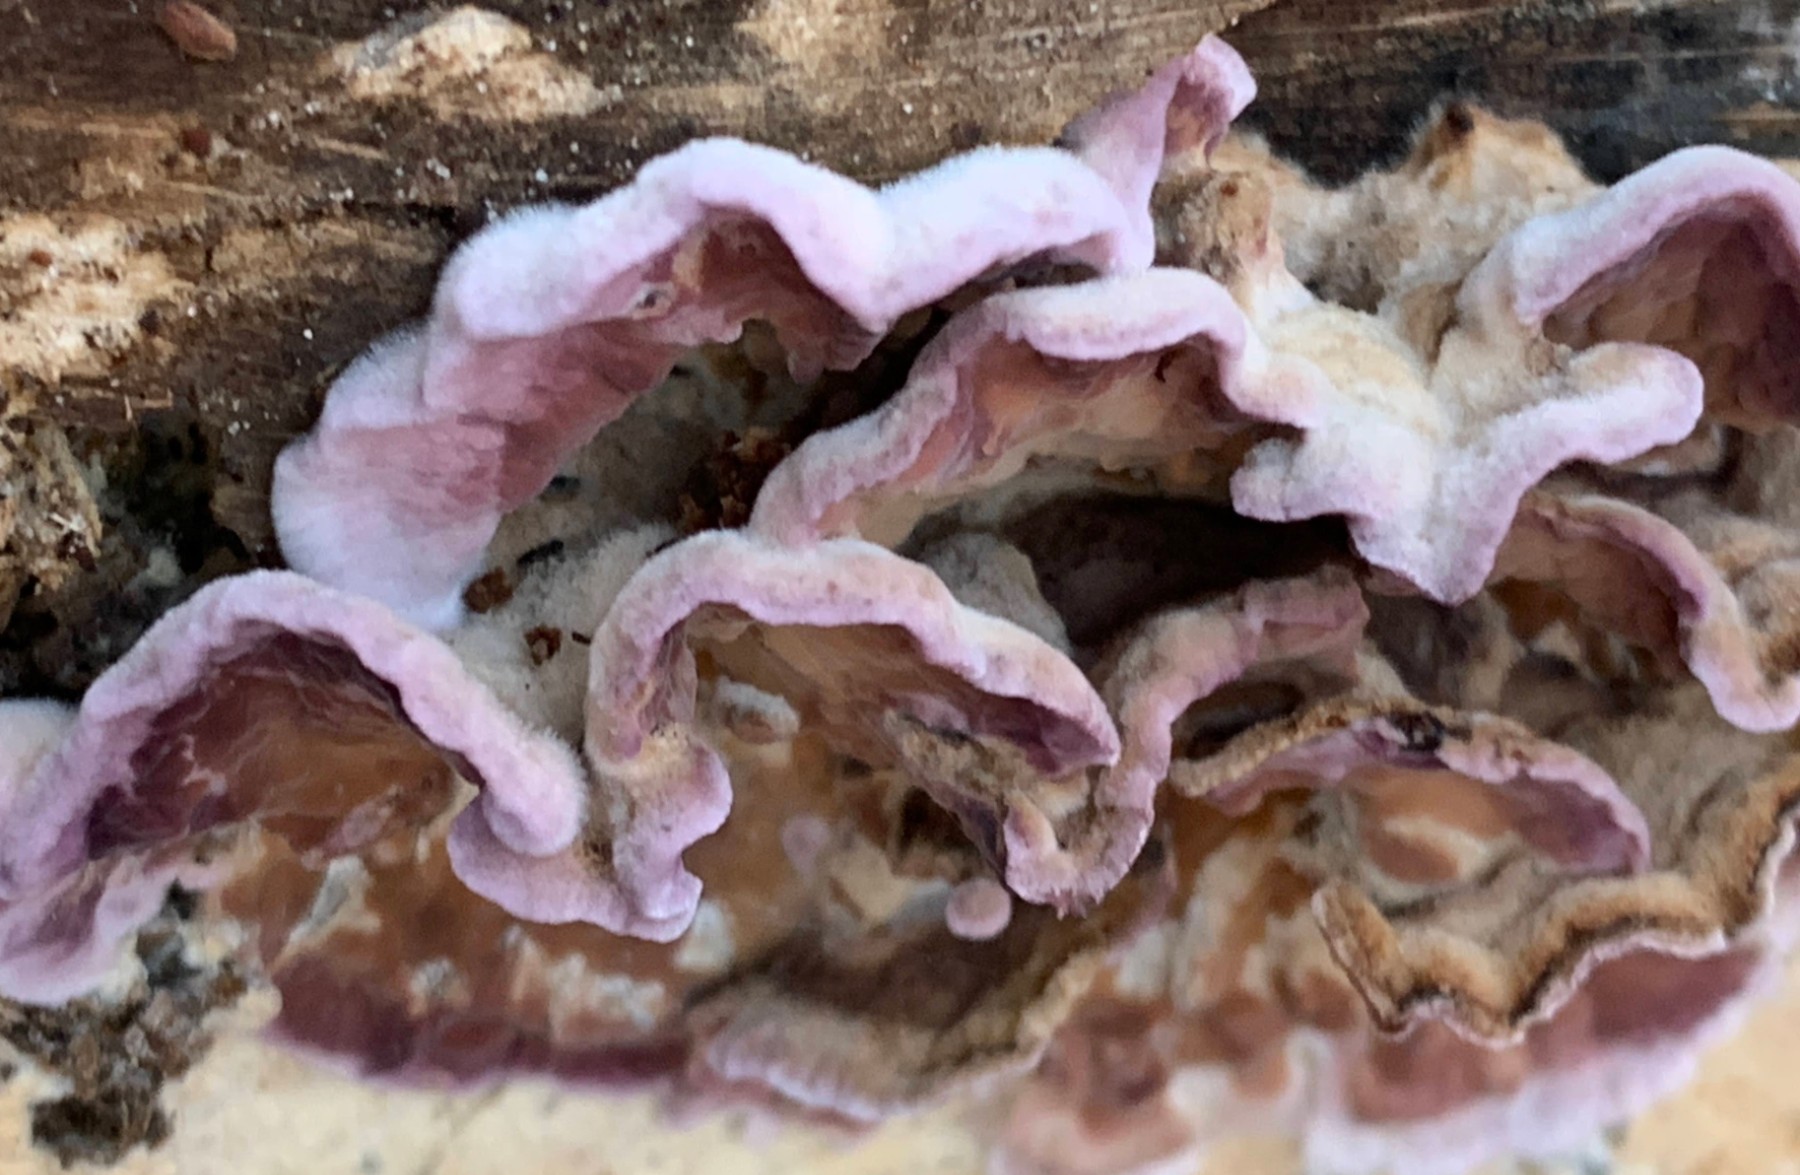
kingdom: Fungi
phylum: Basidiomycota
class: Agaricomycetes
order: Agaricales
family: Cyphellaceae
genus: Chondrostereum
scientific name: Chondrostereum purpureum
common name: purpurlædersvamp
